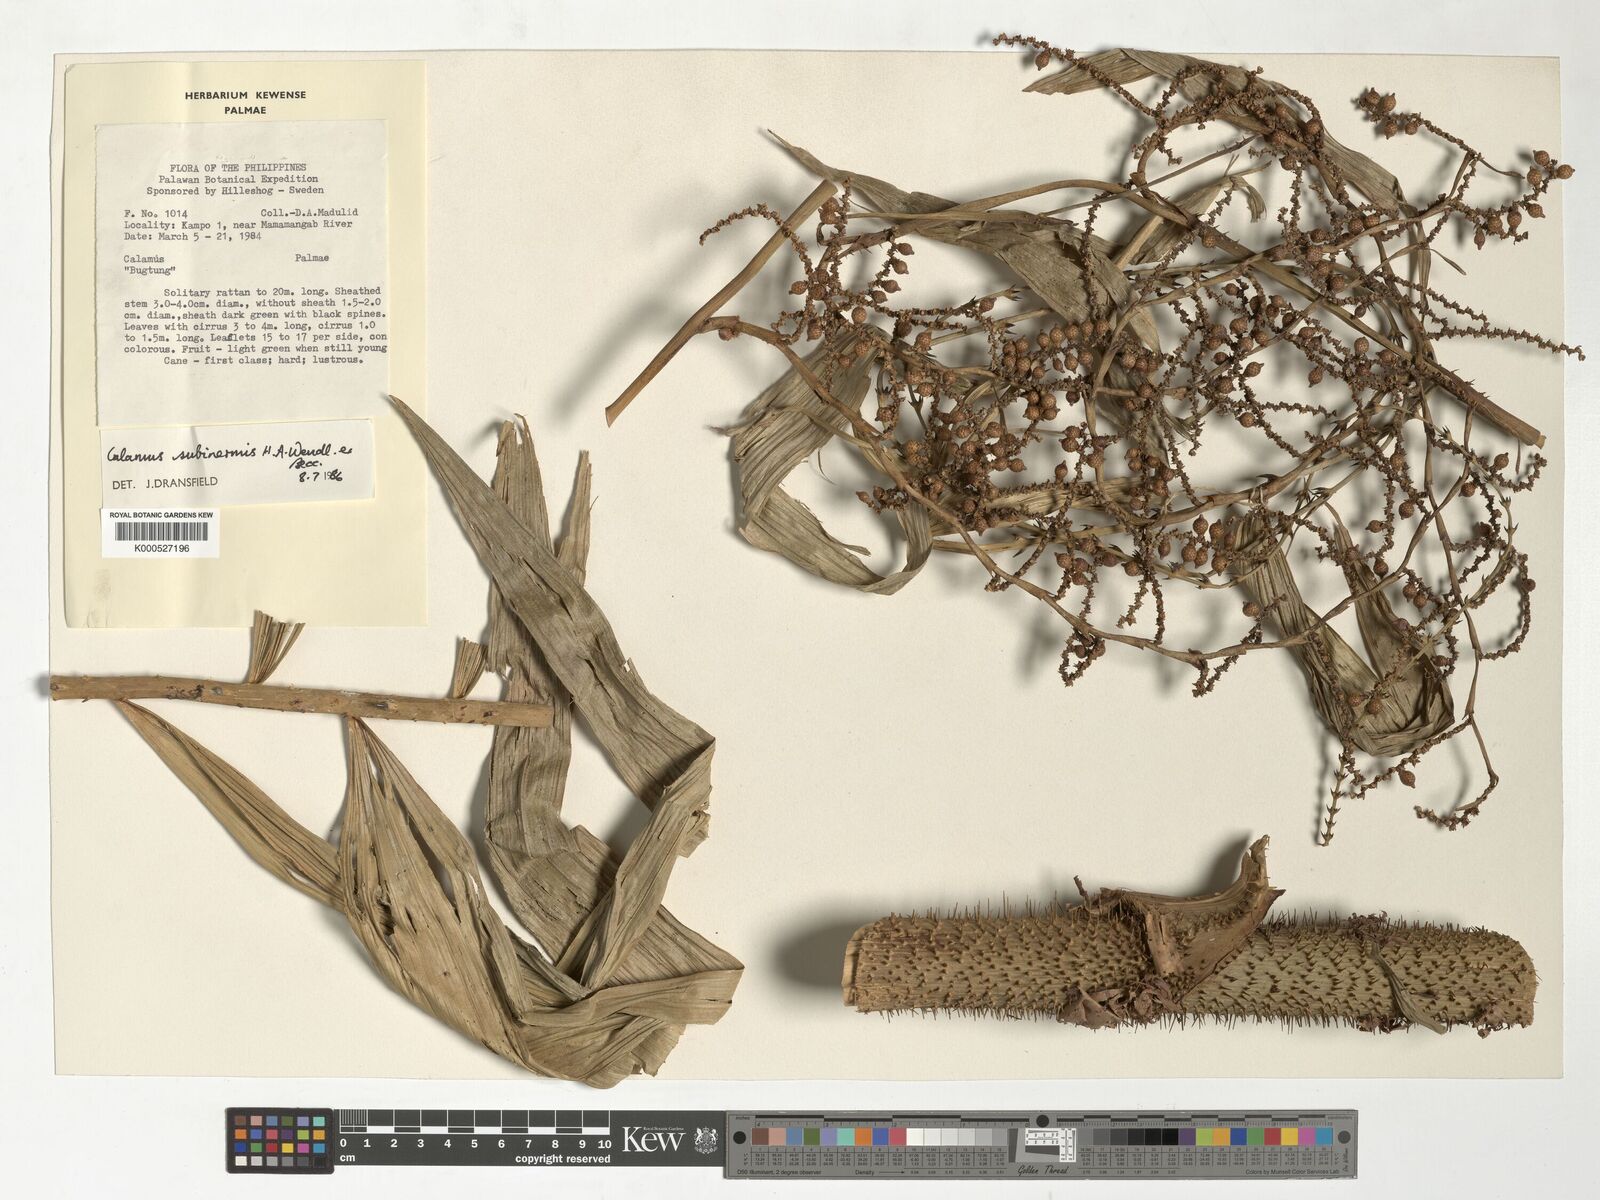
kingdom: Plantae
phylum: Tracheophyta
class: Liliopsida
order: Arecales
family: Arecaceae
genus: Calamus
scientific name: Calamus moseleyanus
